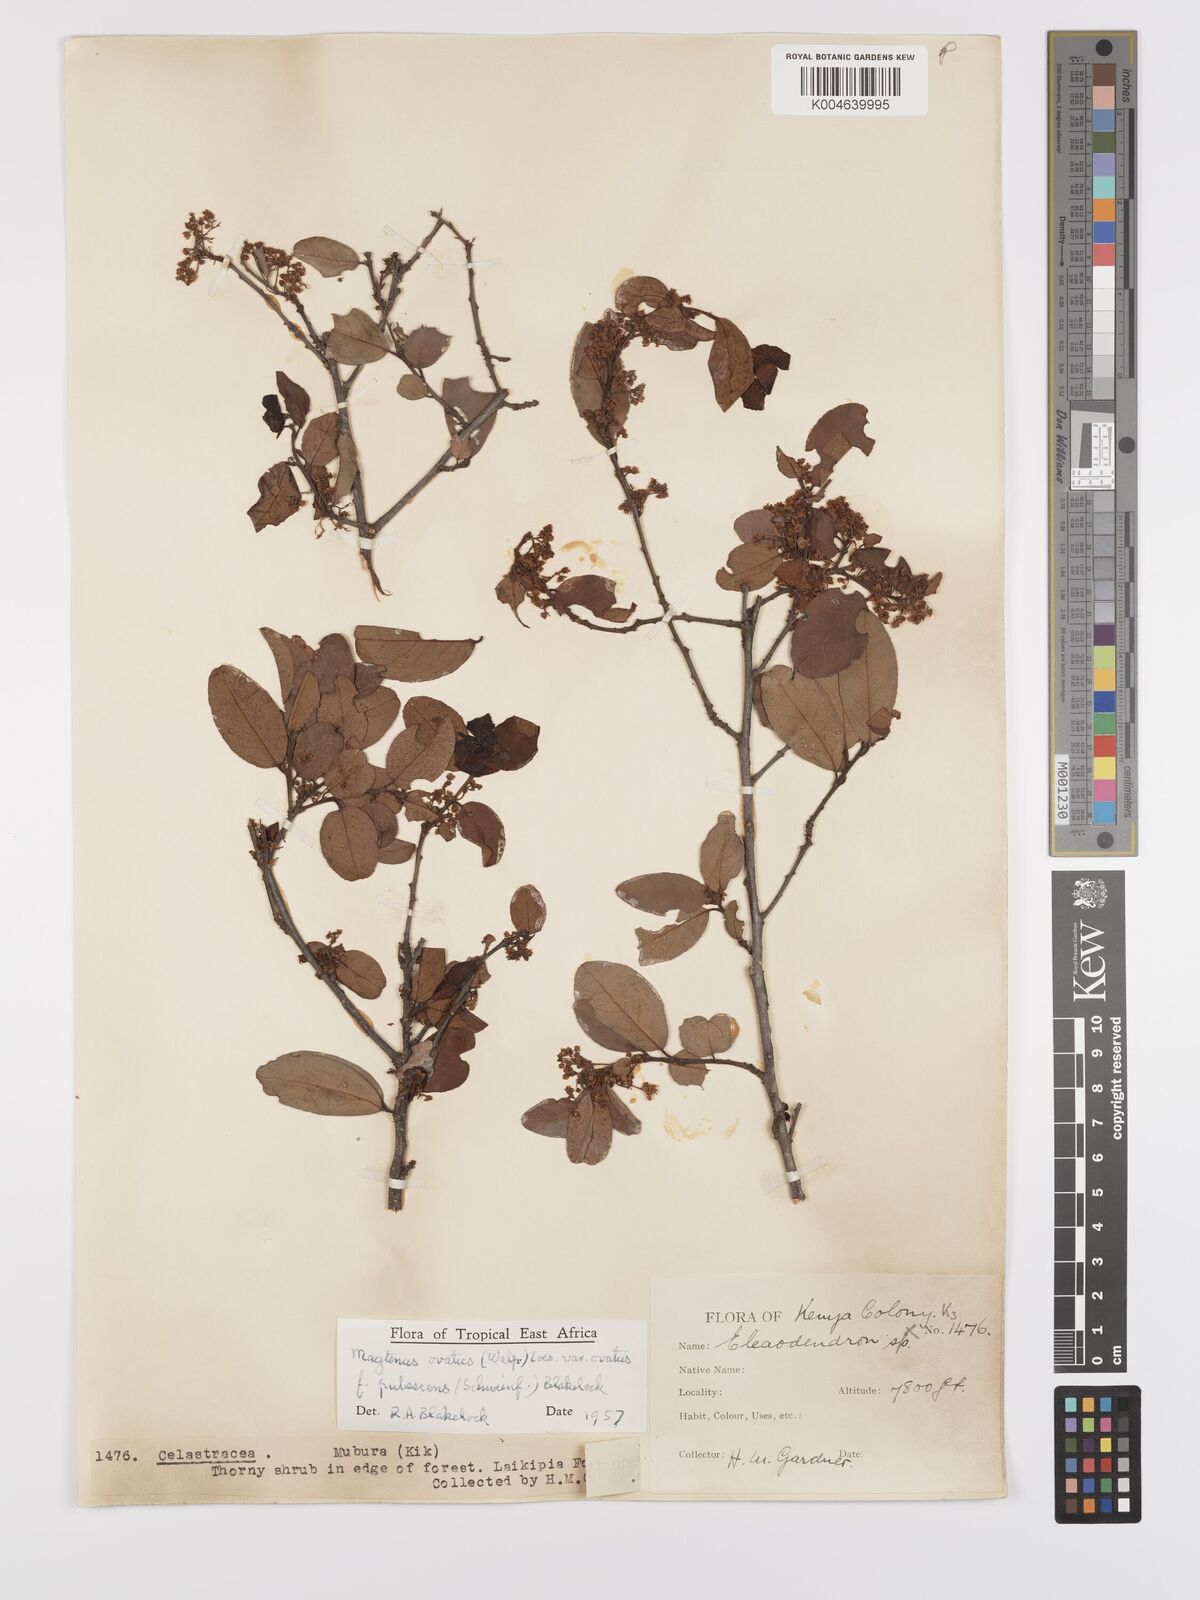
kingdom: Plantae
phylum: Tracheophyta
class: Magnoliopsida
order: Celastrales
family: Celastraceae
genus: Gymnosporia
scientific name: Gymnosporia arbutifolia
